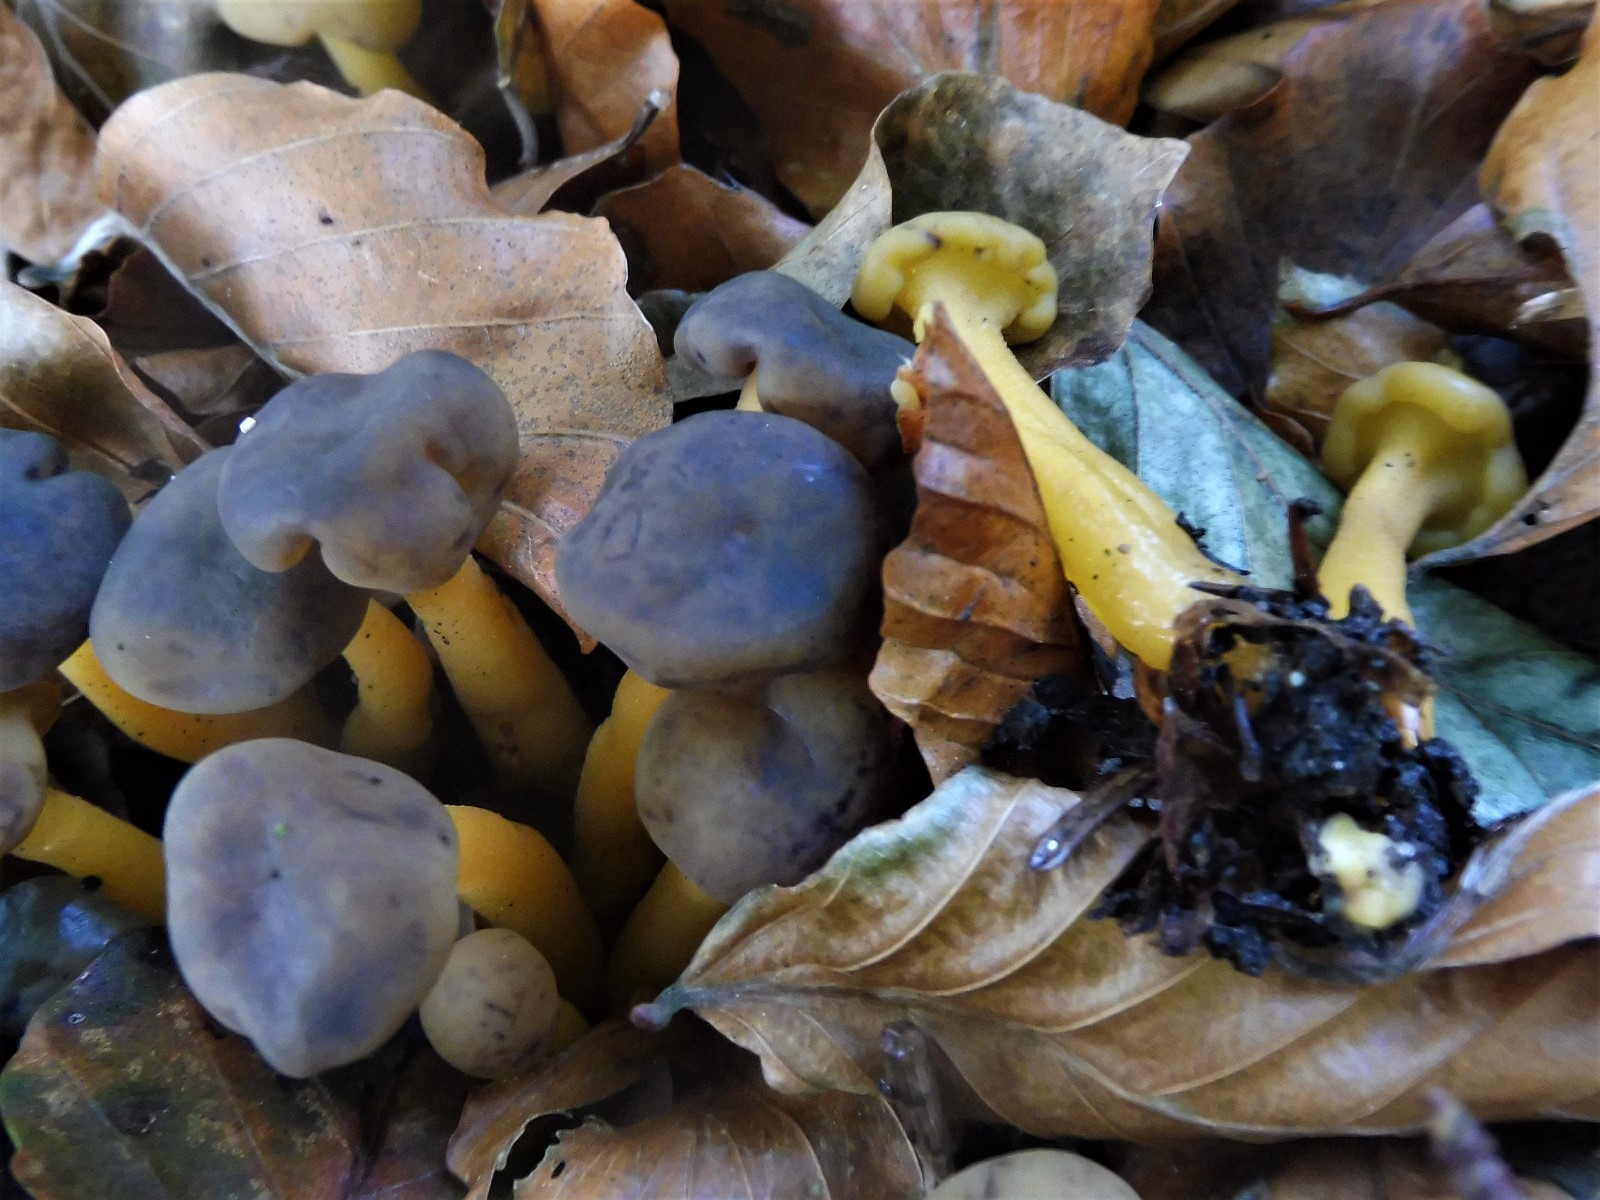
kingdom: Fungi
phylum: Ascomycota
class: Leotiomycetes
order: Leotiales
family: Leotiaceae
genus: Leotia
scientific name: Leotia lubrica
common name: ravsvamp
